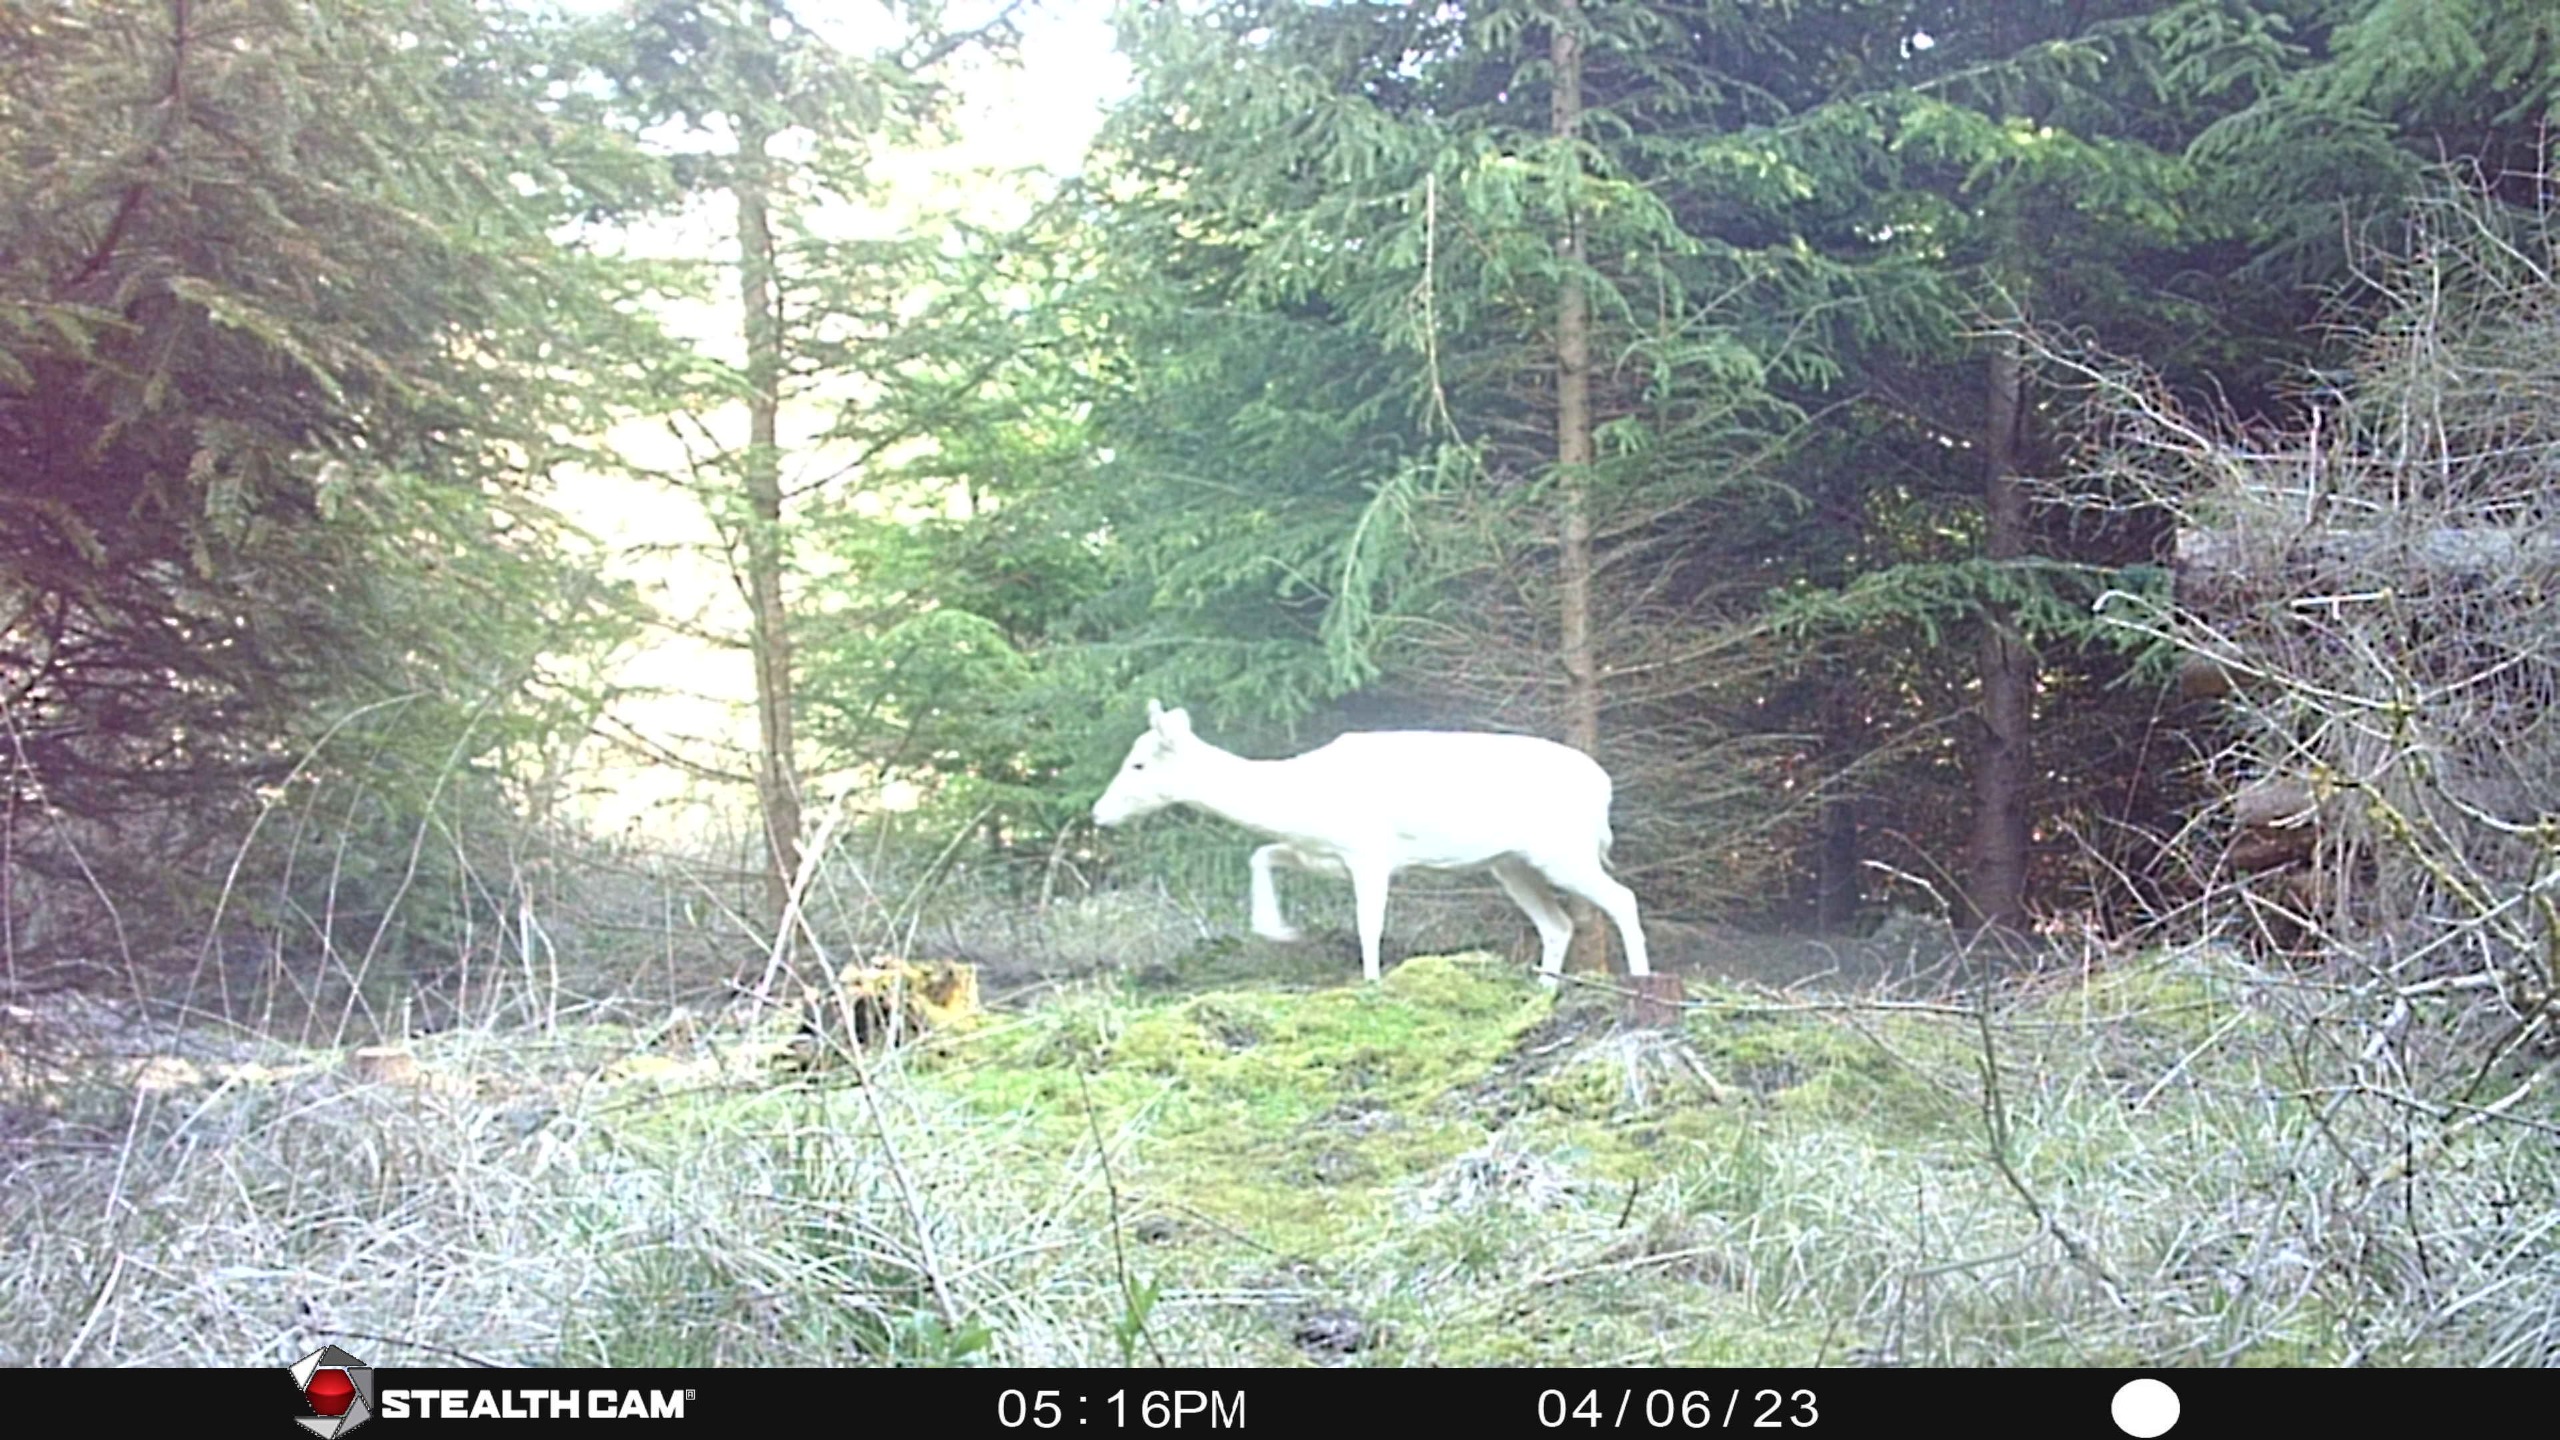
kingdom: Animalia
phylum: Chordata
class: Mammalia
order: Artiodactyla
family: Cervidae
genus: Dama
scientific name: Dama dama
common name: Dådyr
